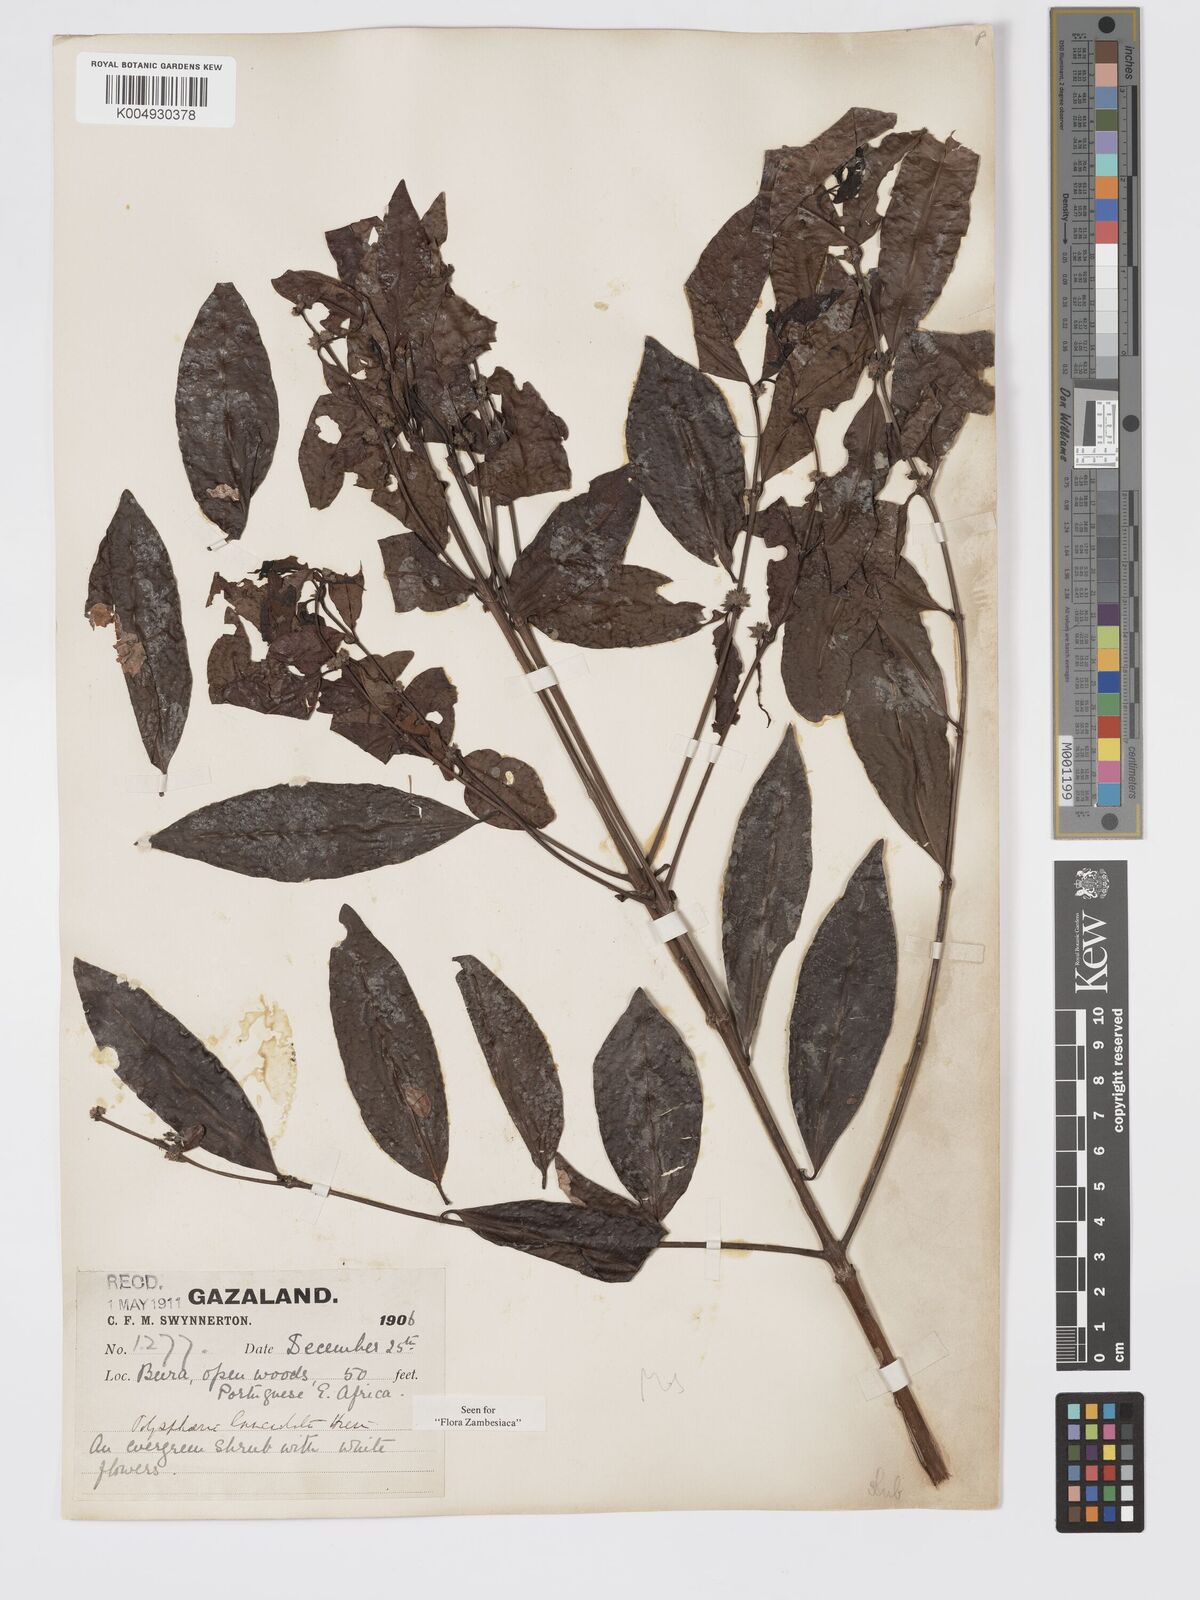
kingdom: Plantae
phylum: Tracheophyta
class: Magnoliopsida
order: Gentianales
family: Rubiaceae
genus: Polysphaeria
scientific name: Polysphaeria lanceolata
